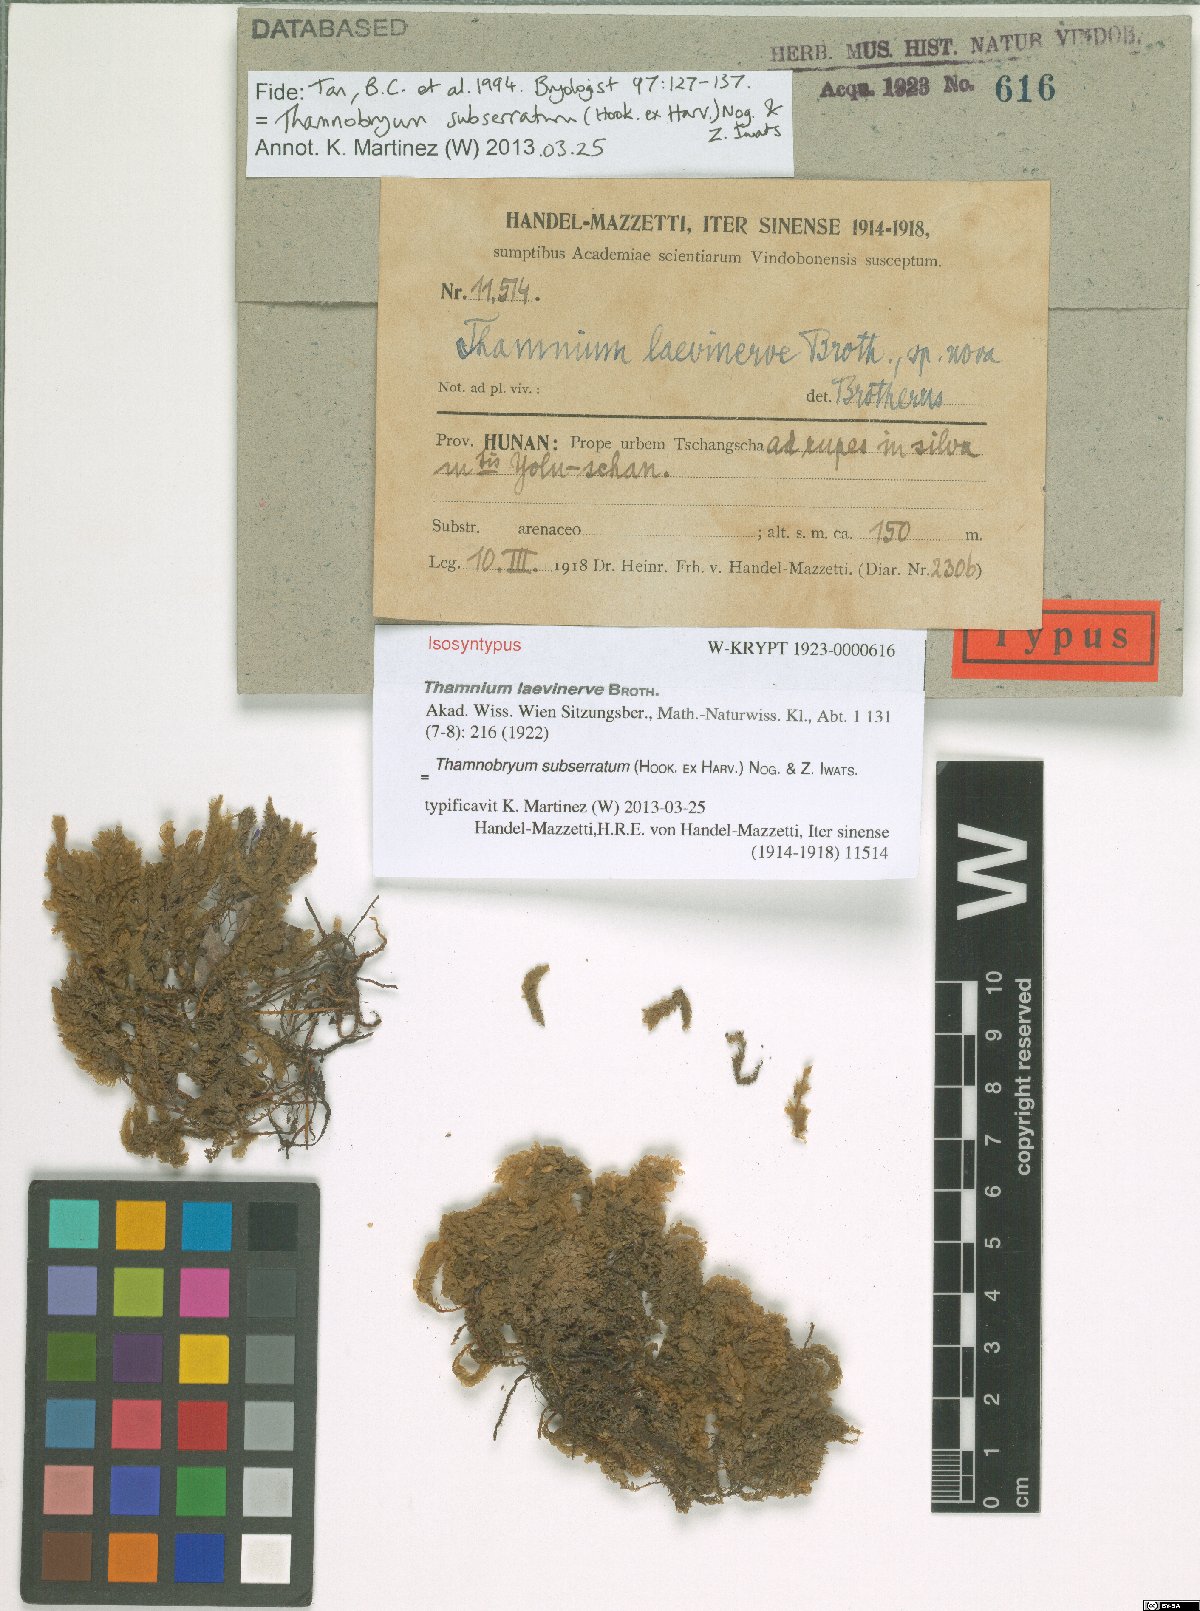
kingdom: Plantae
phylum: Bryophyta
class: Bryopsida
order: Hypnales
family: Neckeraceae
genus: Thamnobryum
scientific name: Thamnobryum neckeroides
